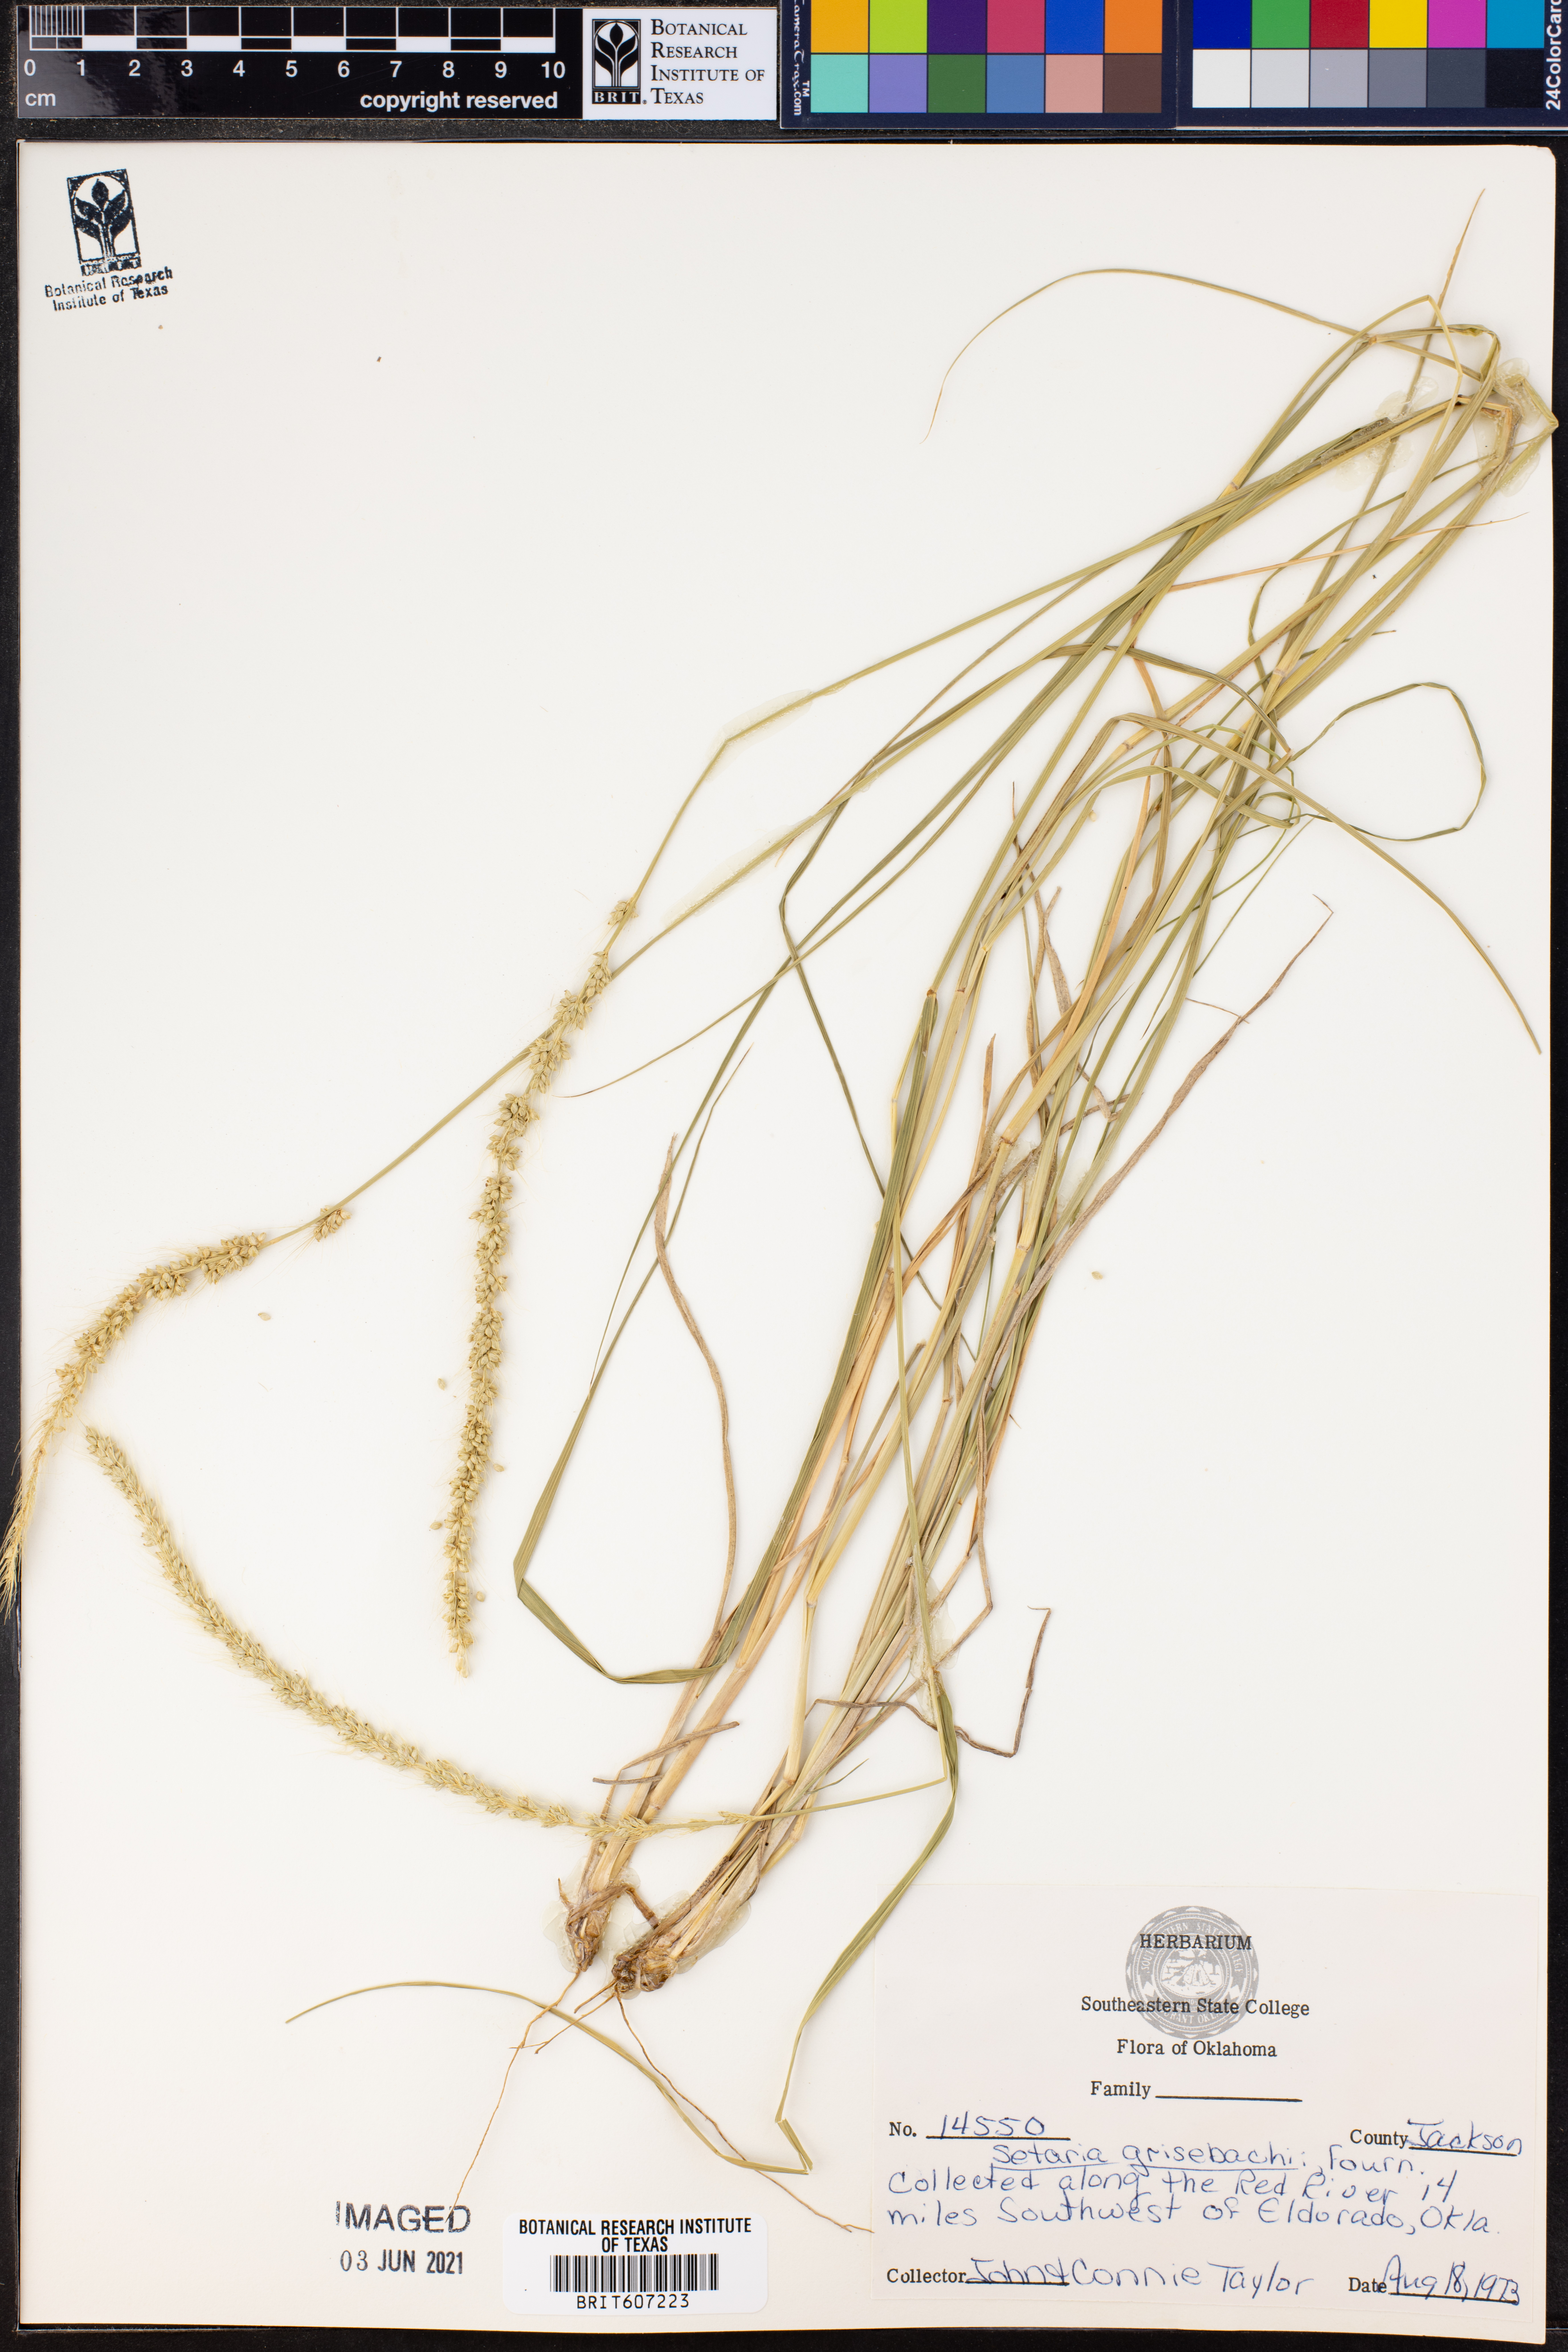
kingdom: Plantae
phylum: Tracheophyta
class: Liliopsida
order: Poales
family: Poaceae
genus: Setaria
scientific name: Setaria grisebachii
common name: Grisebach's bristle grass
